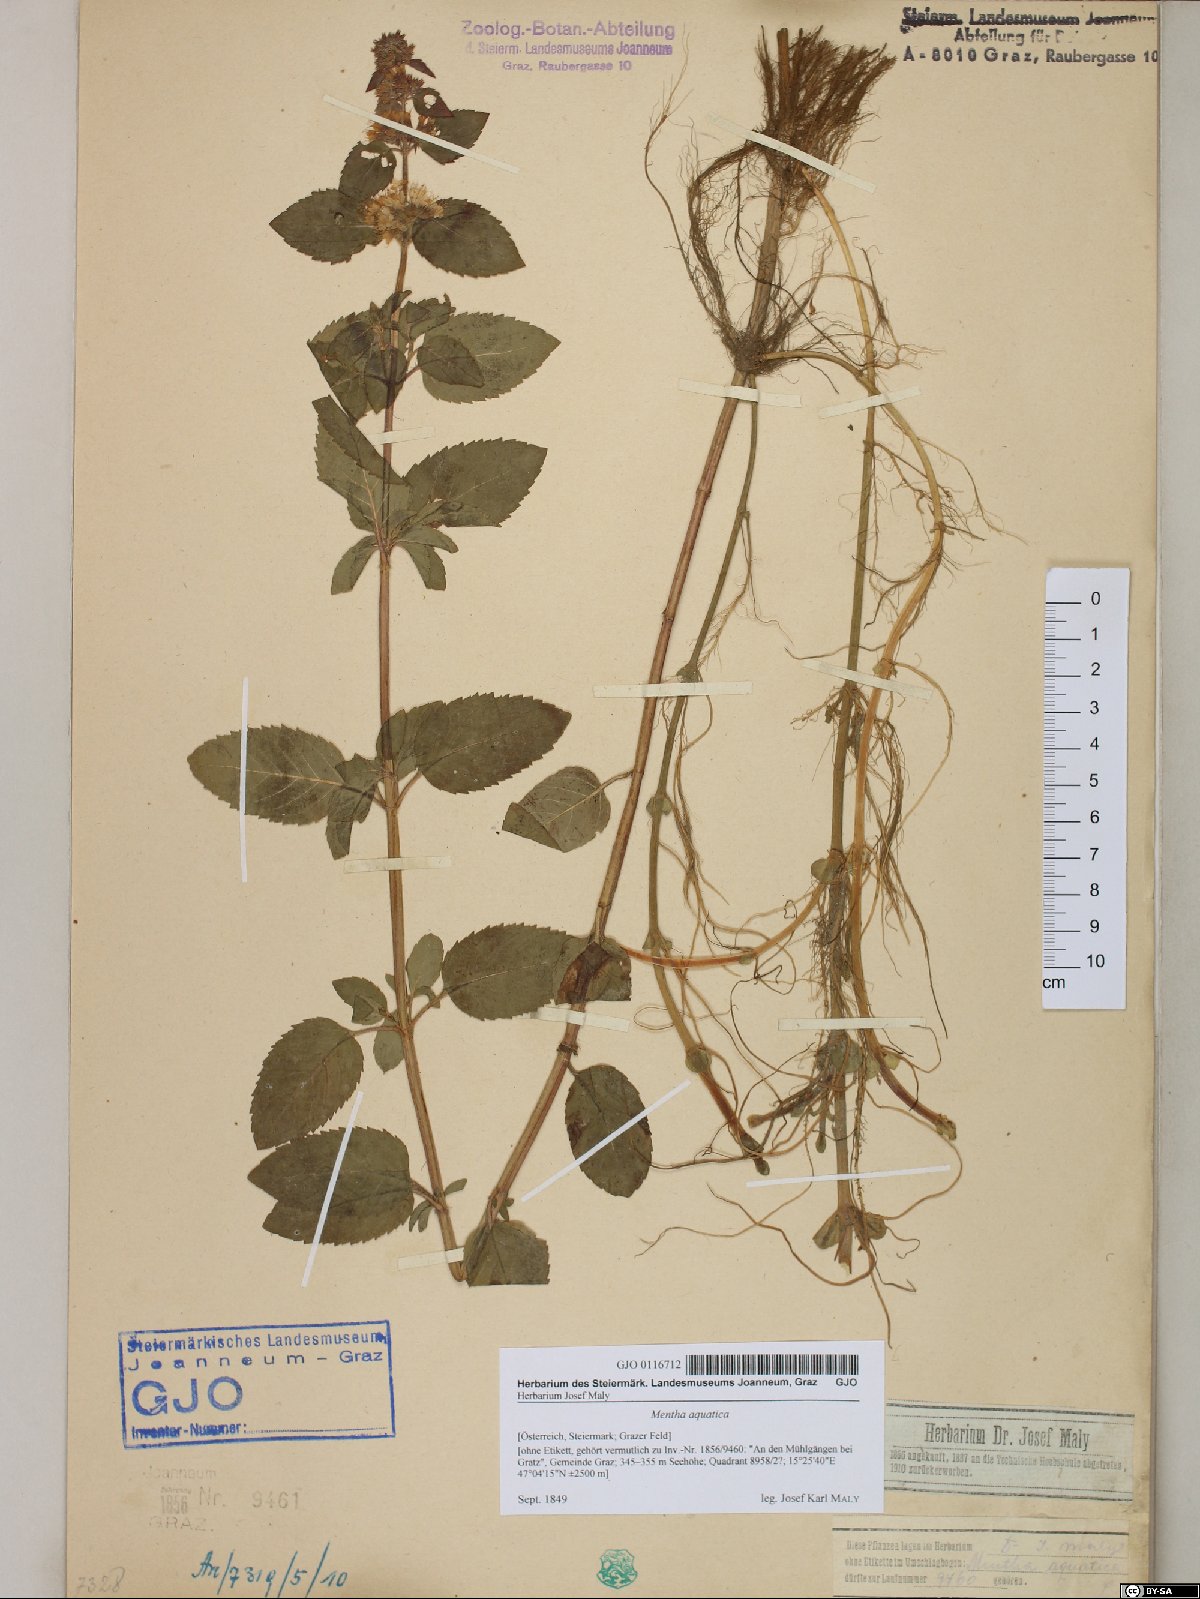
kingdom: Plantae
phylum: Tracheophyta
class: Magnoliopsida
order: Lamiales
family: Lamiaceae
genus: Mentha
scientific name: Mentha aquatica
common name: Water mint
